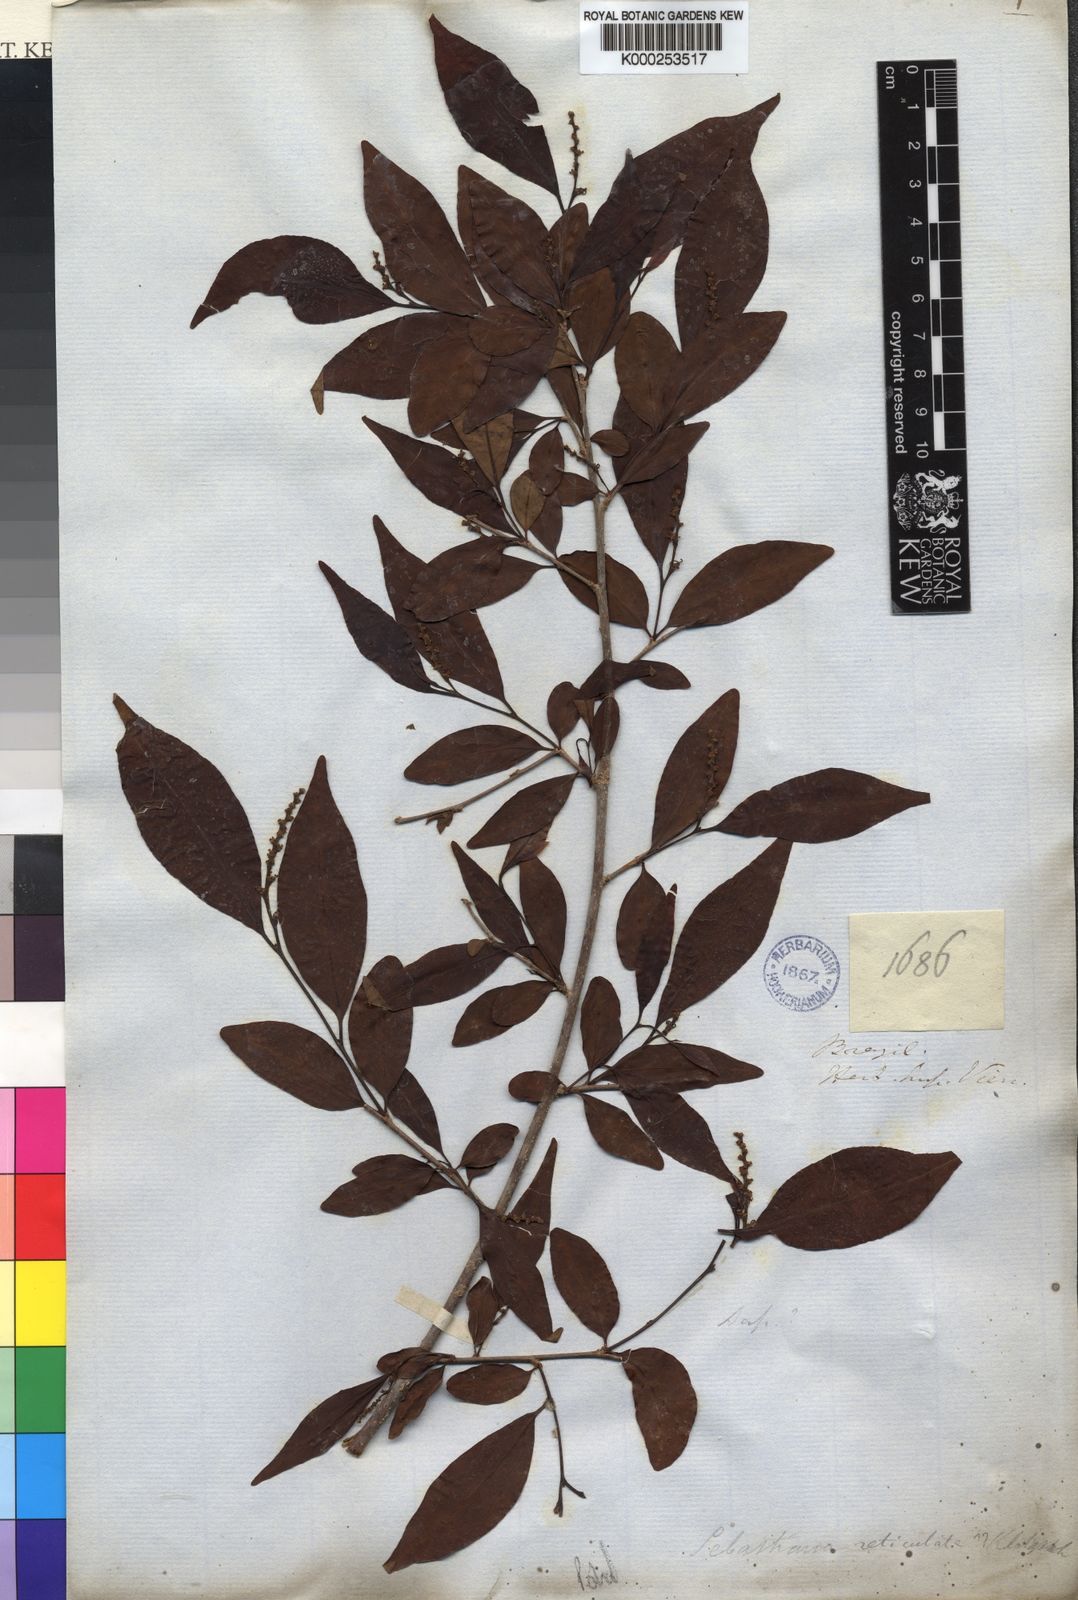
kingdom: Plantae
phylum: Tracheophyta
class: Magnoliopsida
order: Malpighiales
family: Euphorbiaceae
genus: Sebastiania
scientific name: Sebastiania
